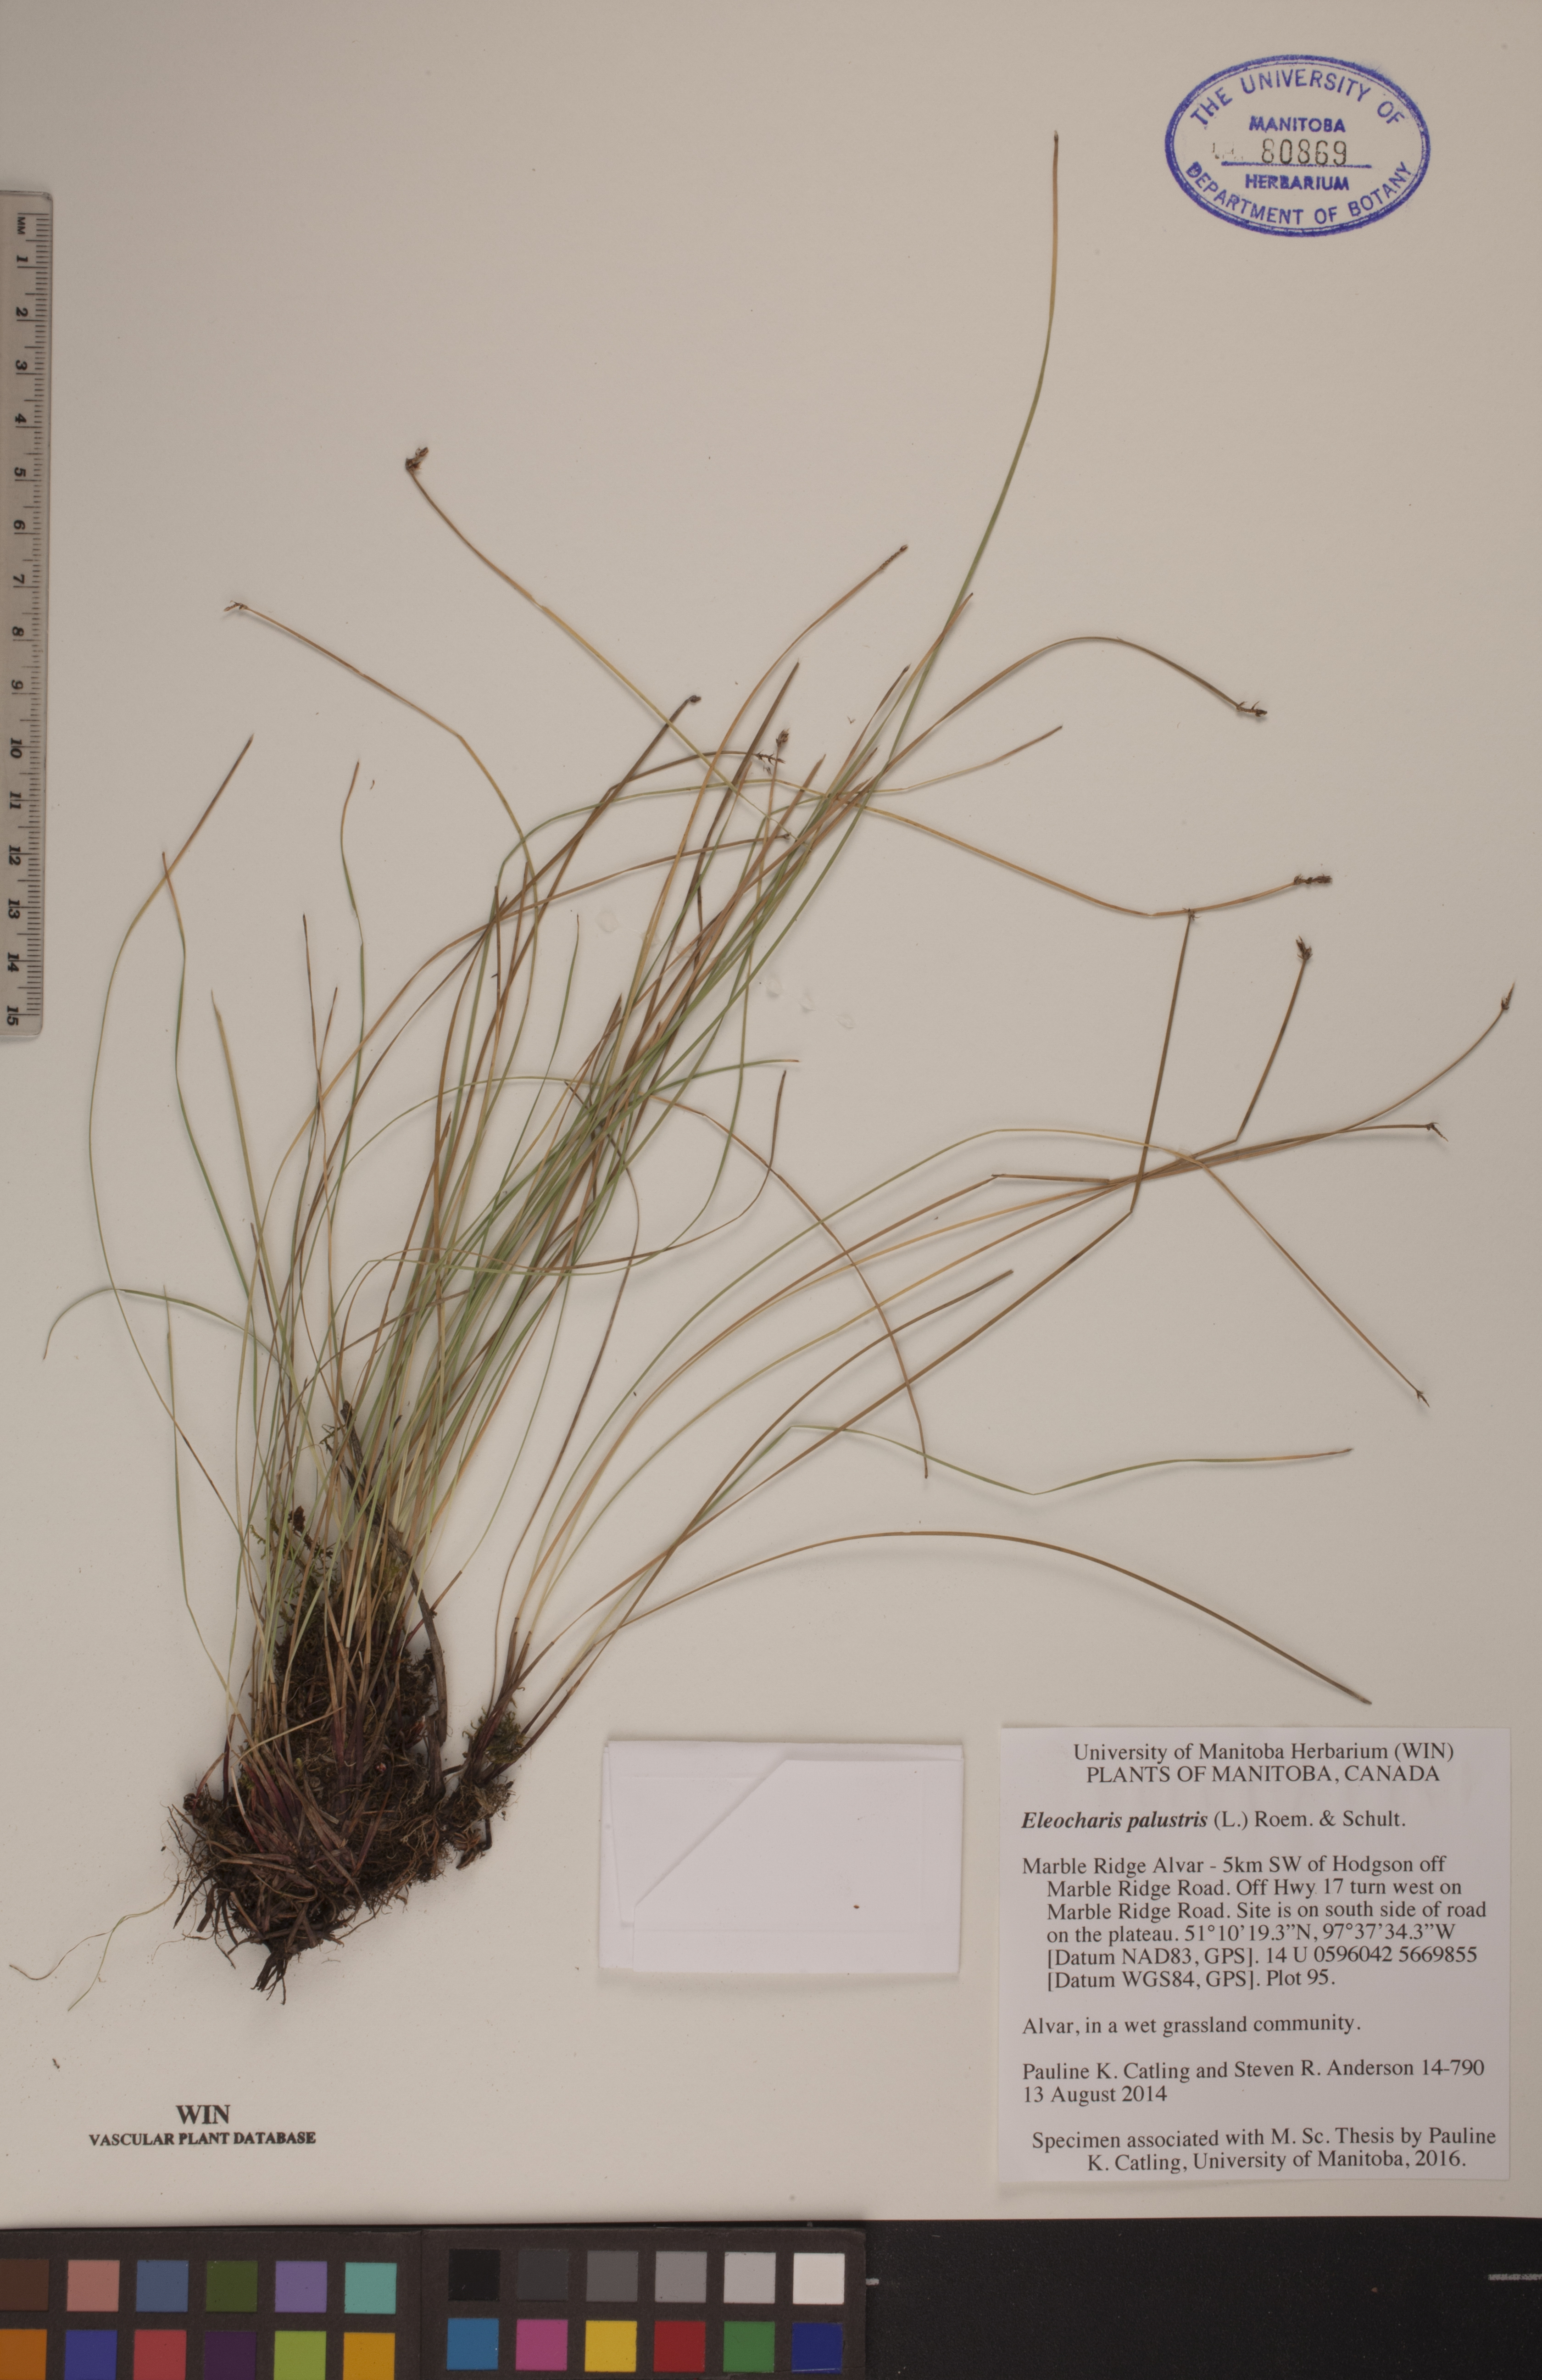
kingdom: Plantae
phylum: Tracheophyta
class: Liliopsida
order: Poales
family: Cyperaceae
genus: Eleocharis
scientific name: Eleocharis palustris
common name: Common spike-rush
